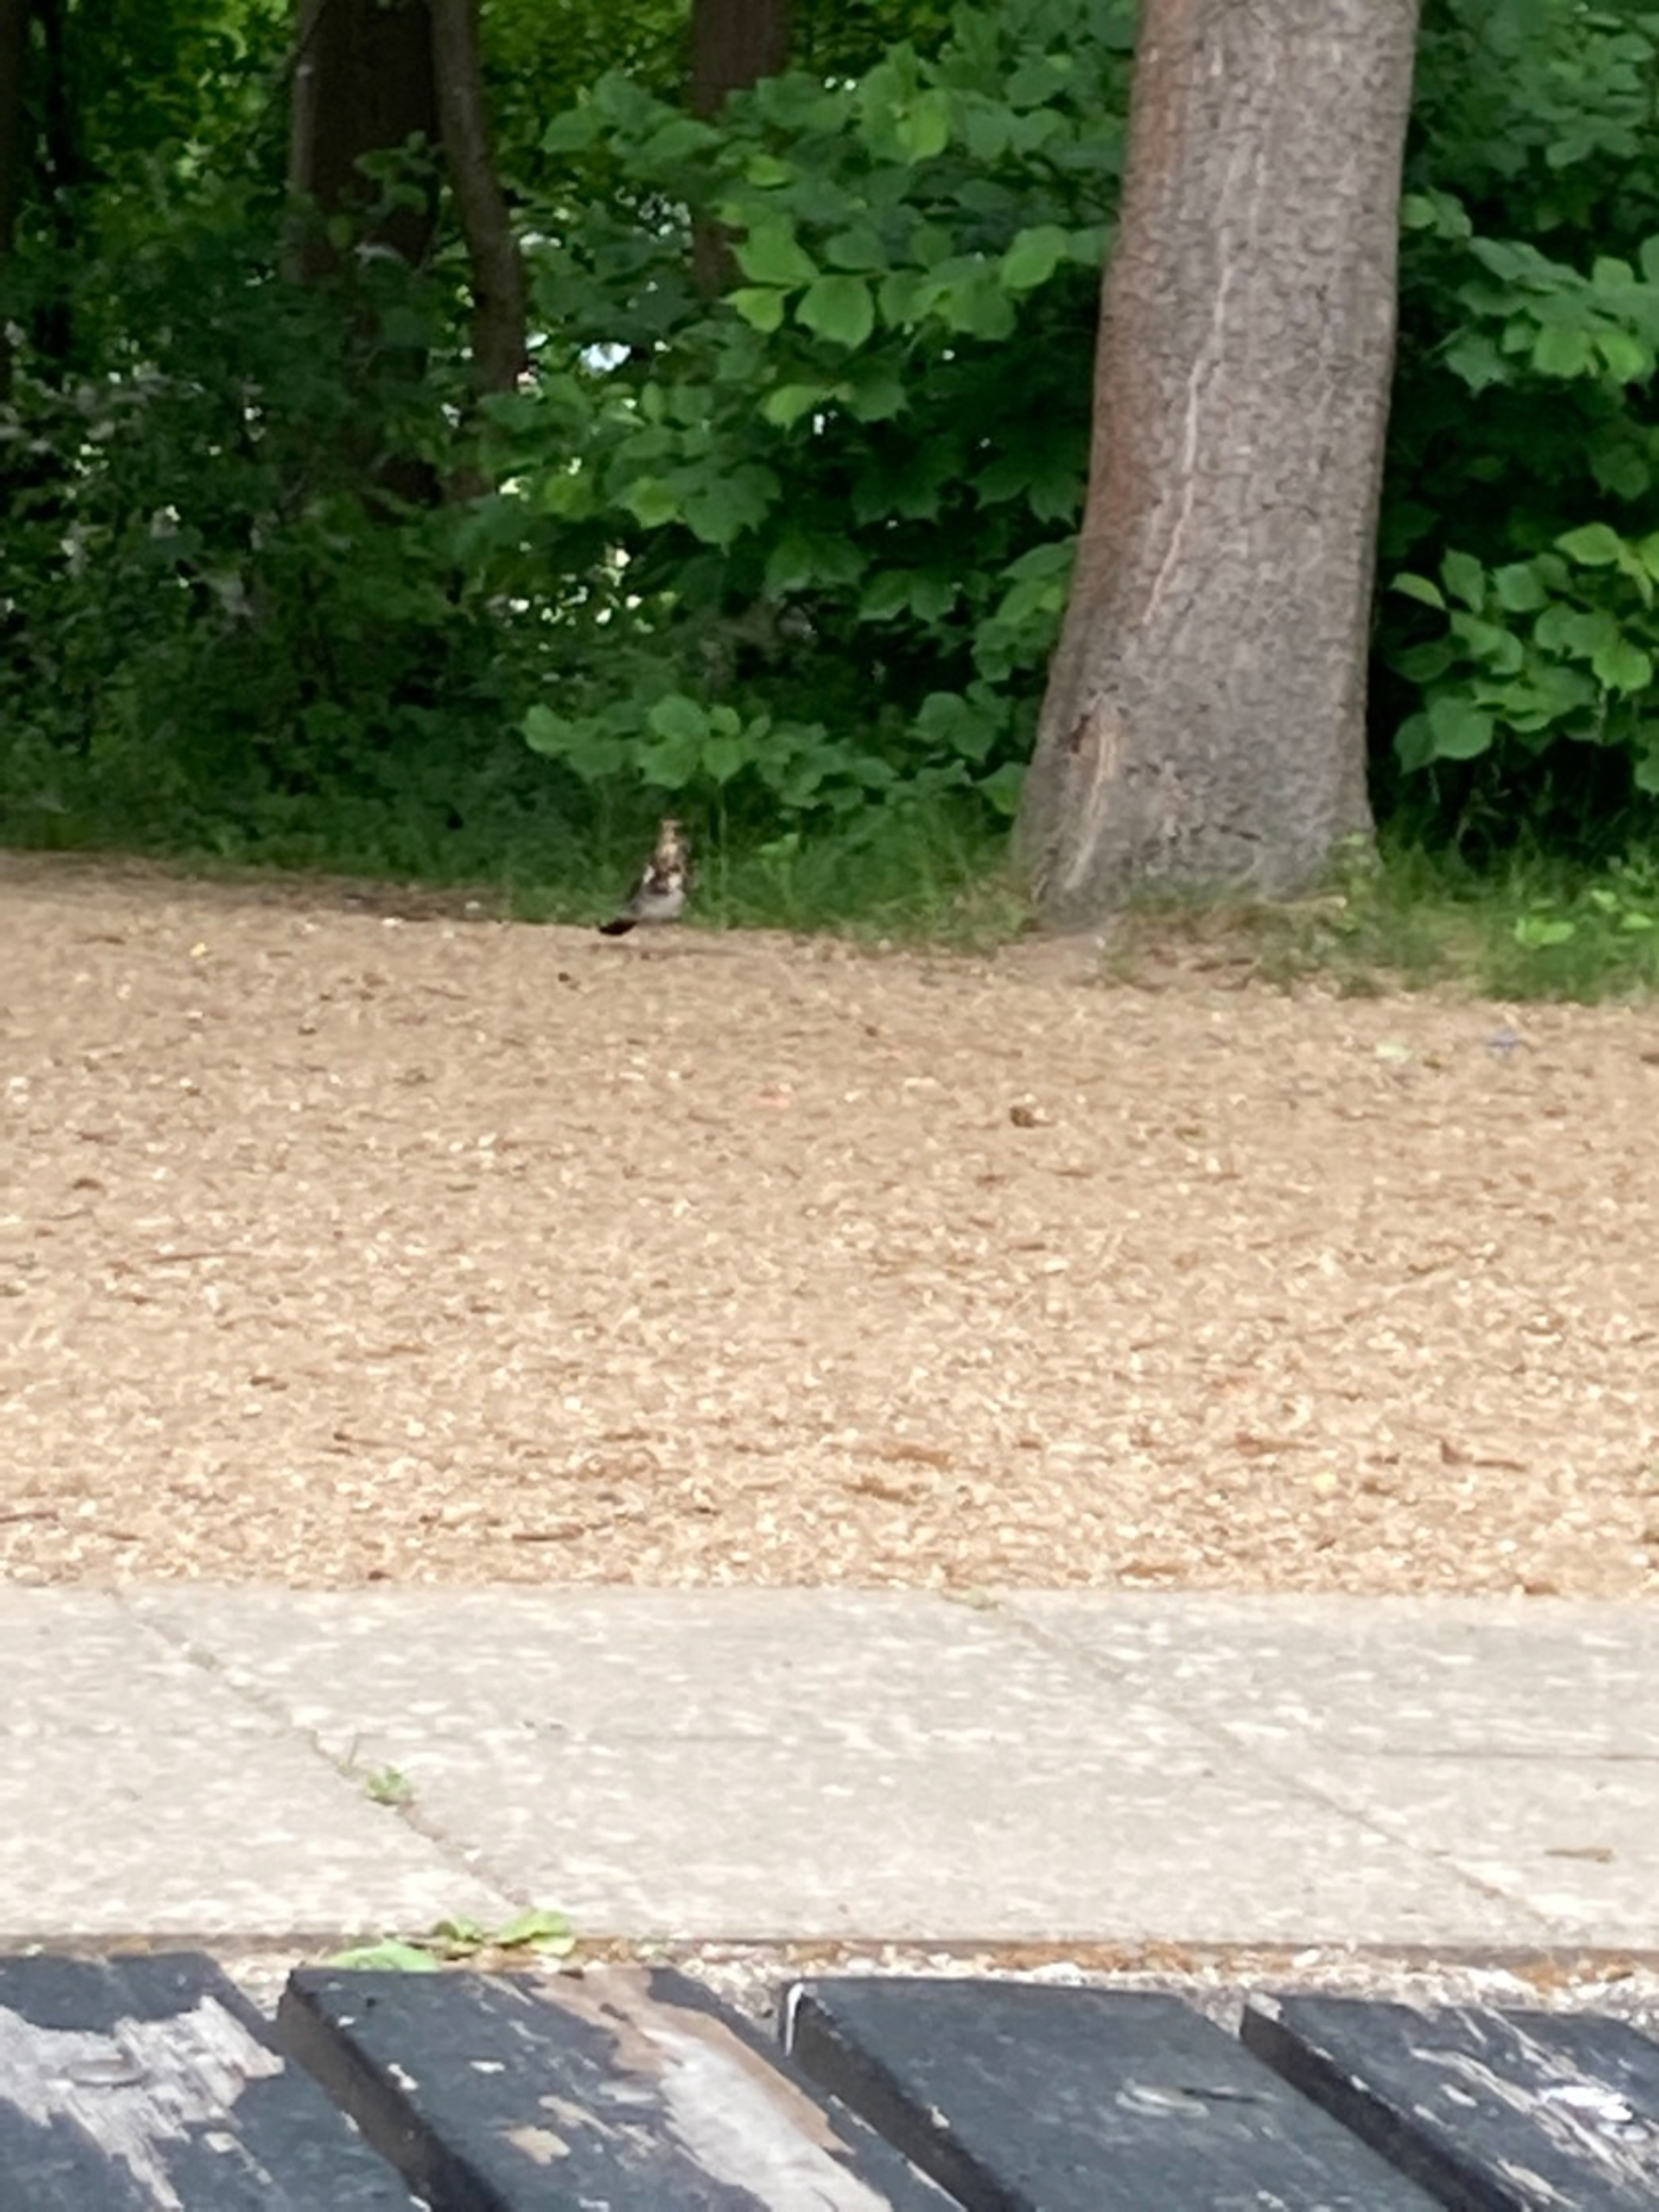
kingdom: Animalia
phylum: Chordata
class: Aves
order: Passeriformes
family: Turdidae
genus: Turdus
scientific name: Turdus pilaris
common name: Sjagger
